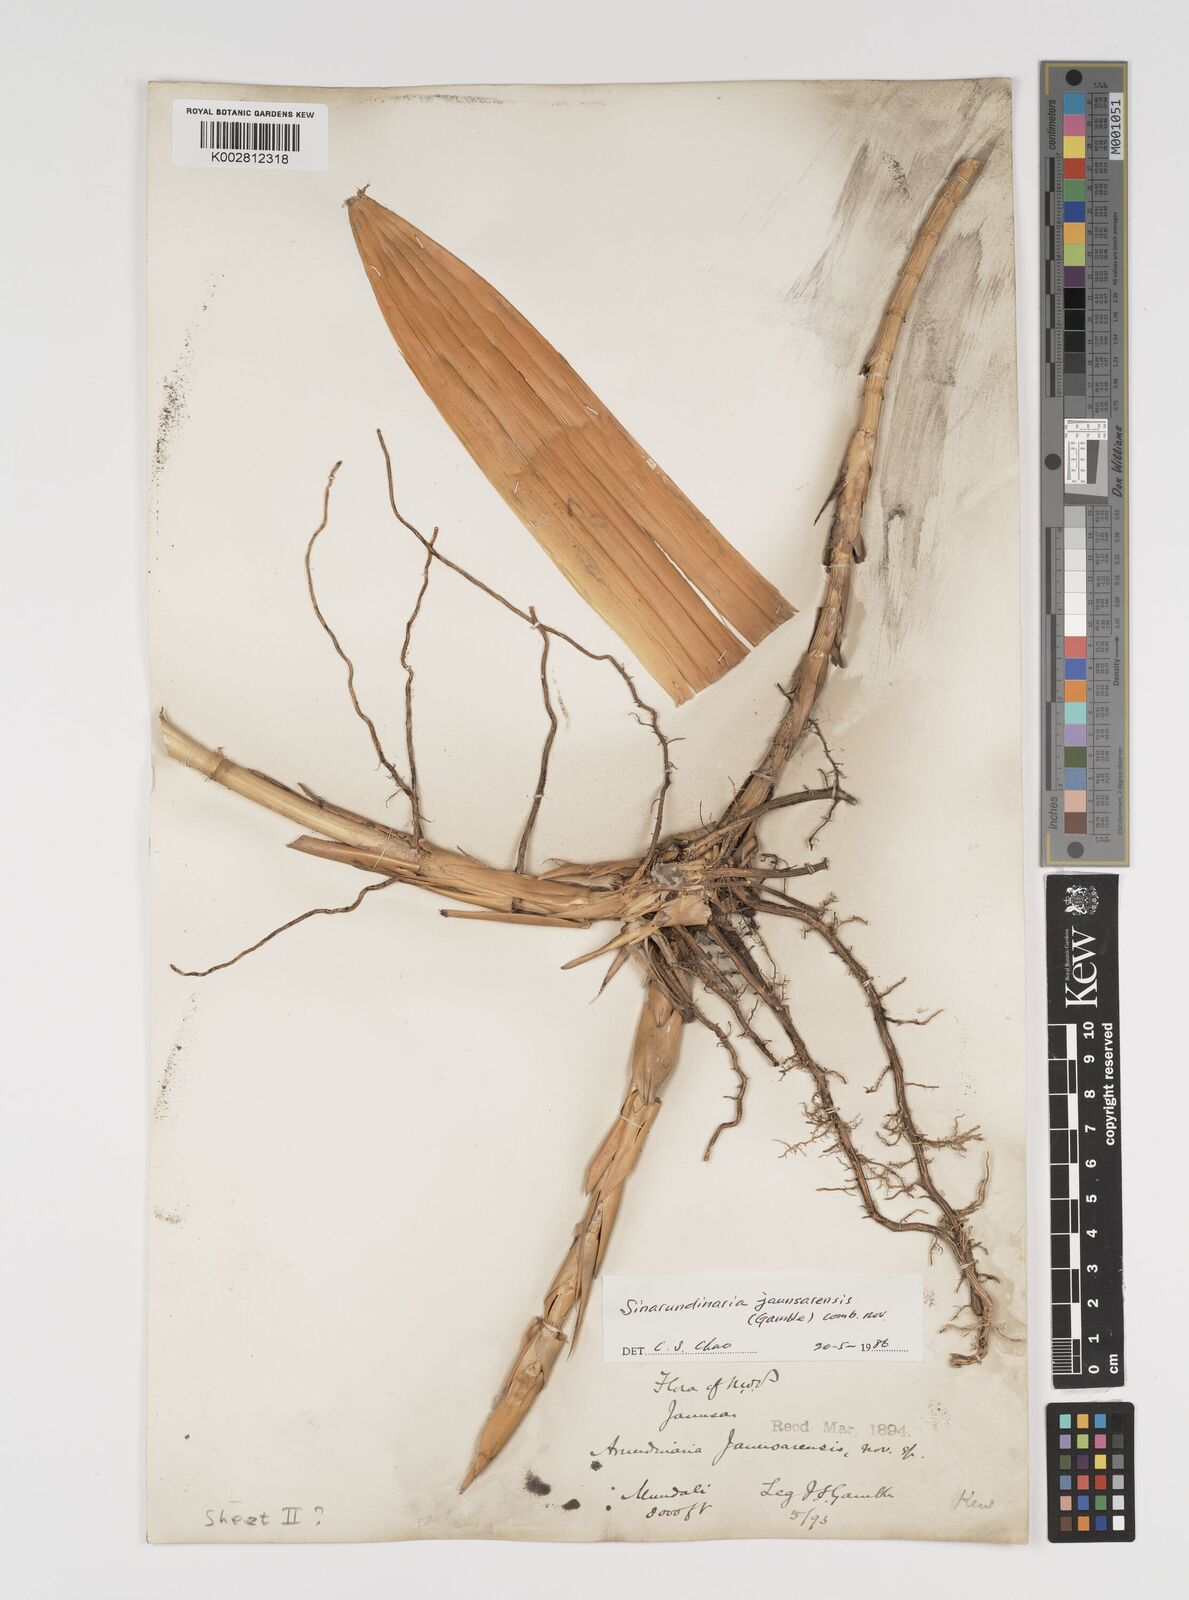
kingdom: Plantae
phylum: Tracheophyta
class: Liliopsida
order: Poales
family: Poaceae
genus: Yushania
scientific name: Yushania anceps
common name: Indian fountain-bamboo
